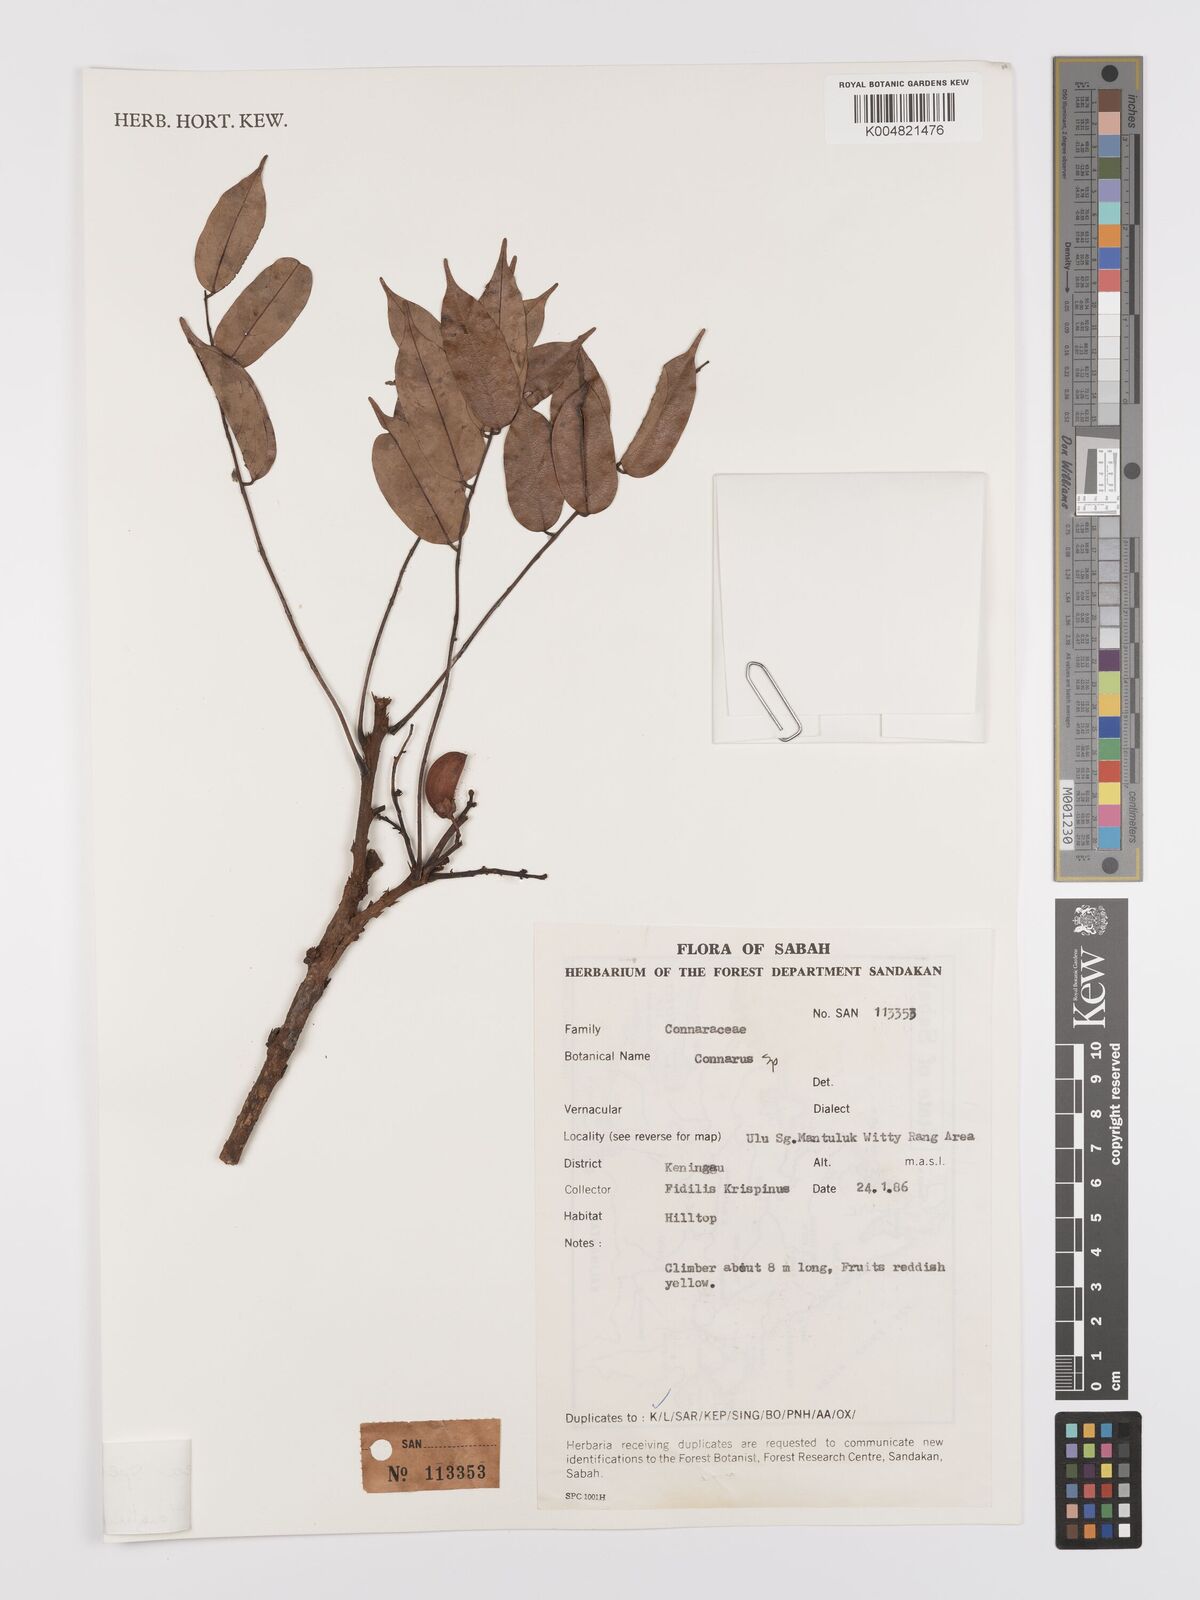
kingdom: Plantae
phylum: Tracheophyta
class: Magnoliopsida
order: Oxalidales
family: Connaraceae
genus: Rourea
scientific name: Rourea
